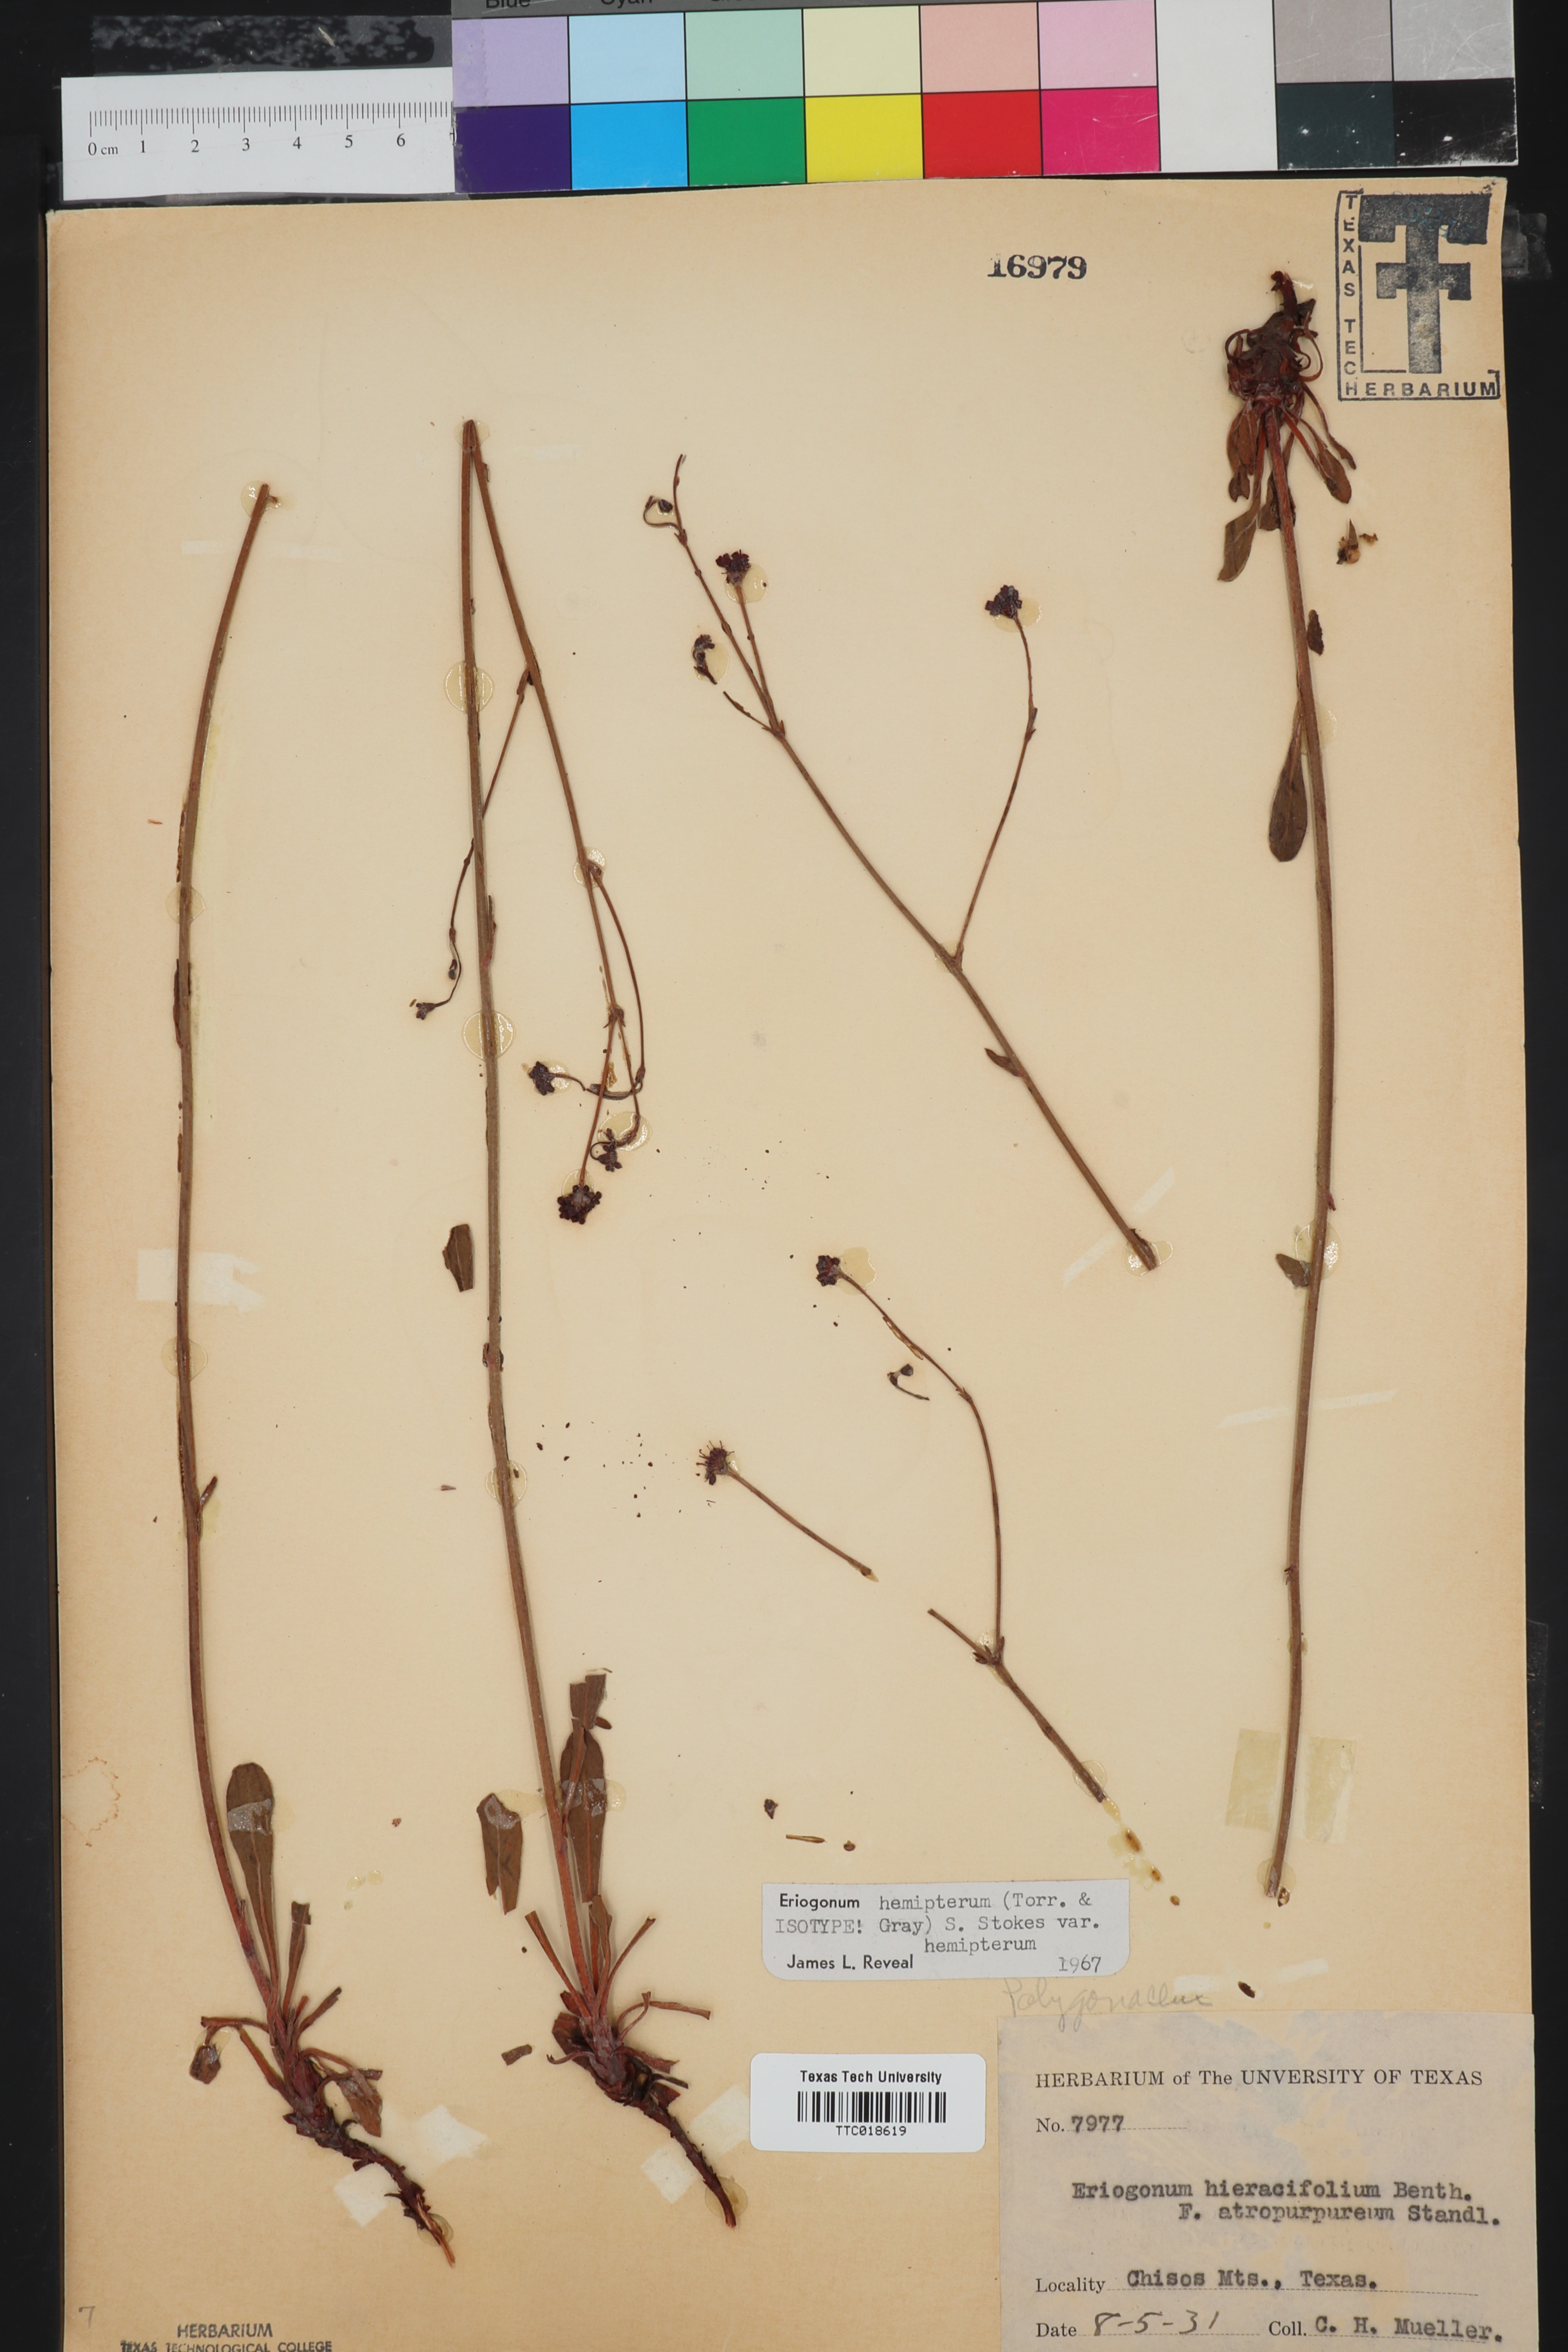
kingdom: Plantae
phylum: Tracheophyta
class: Magnoliopsida
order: Caryophyllales
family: Polygonaceae
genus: Eriogonum
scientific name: Eriogonum hemipterum
